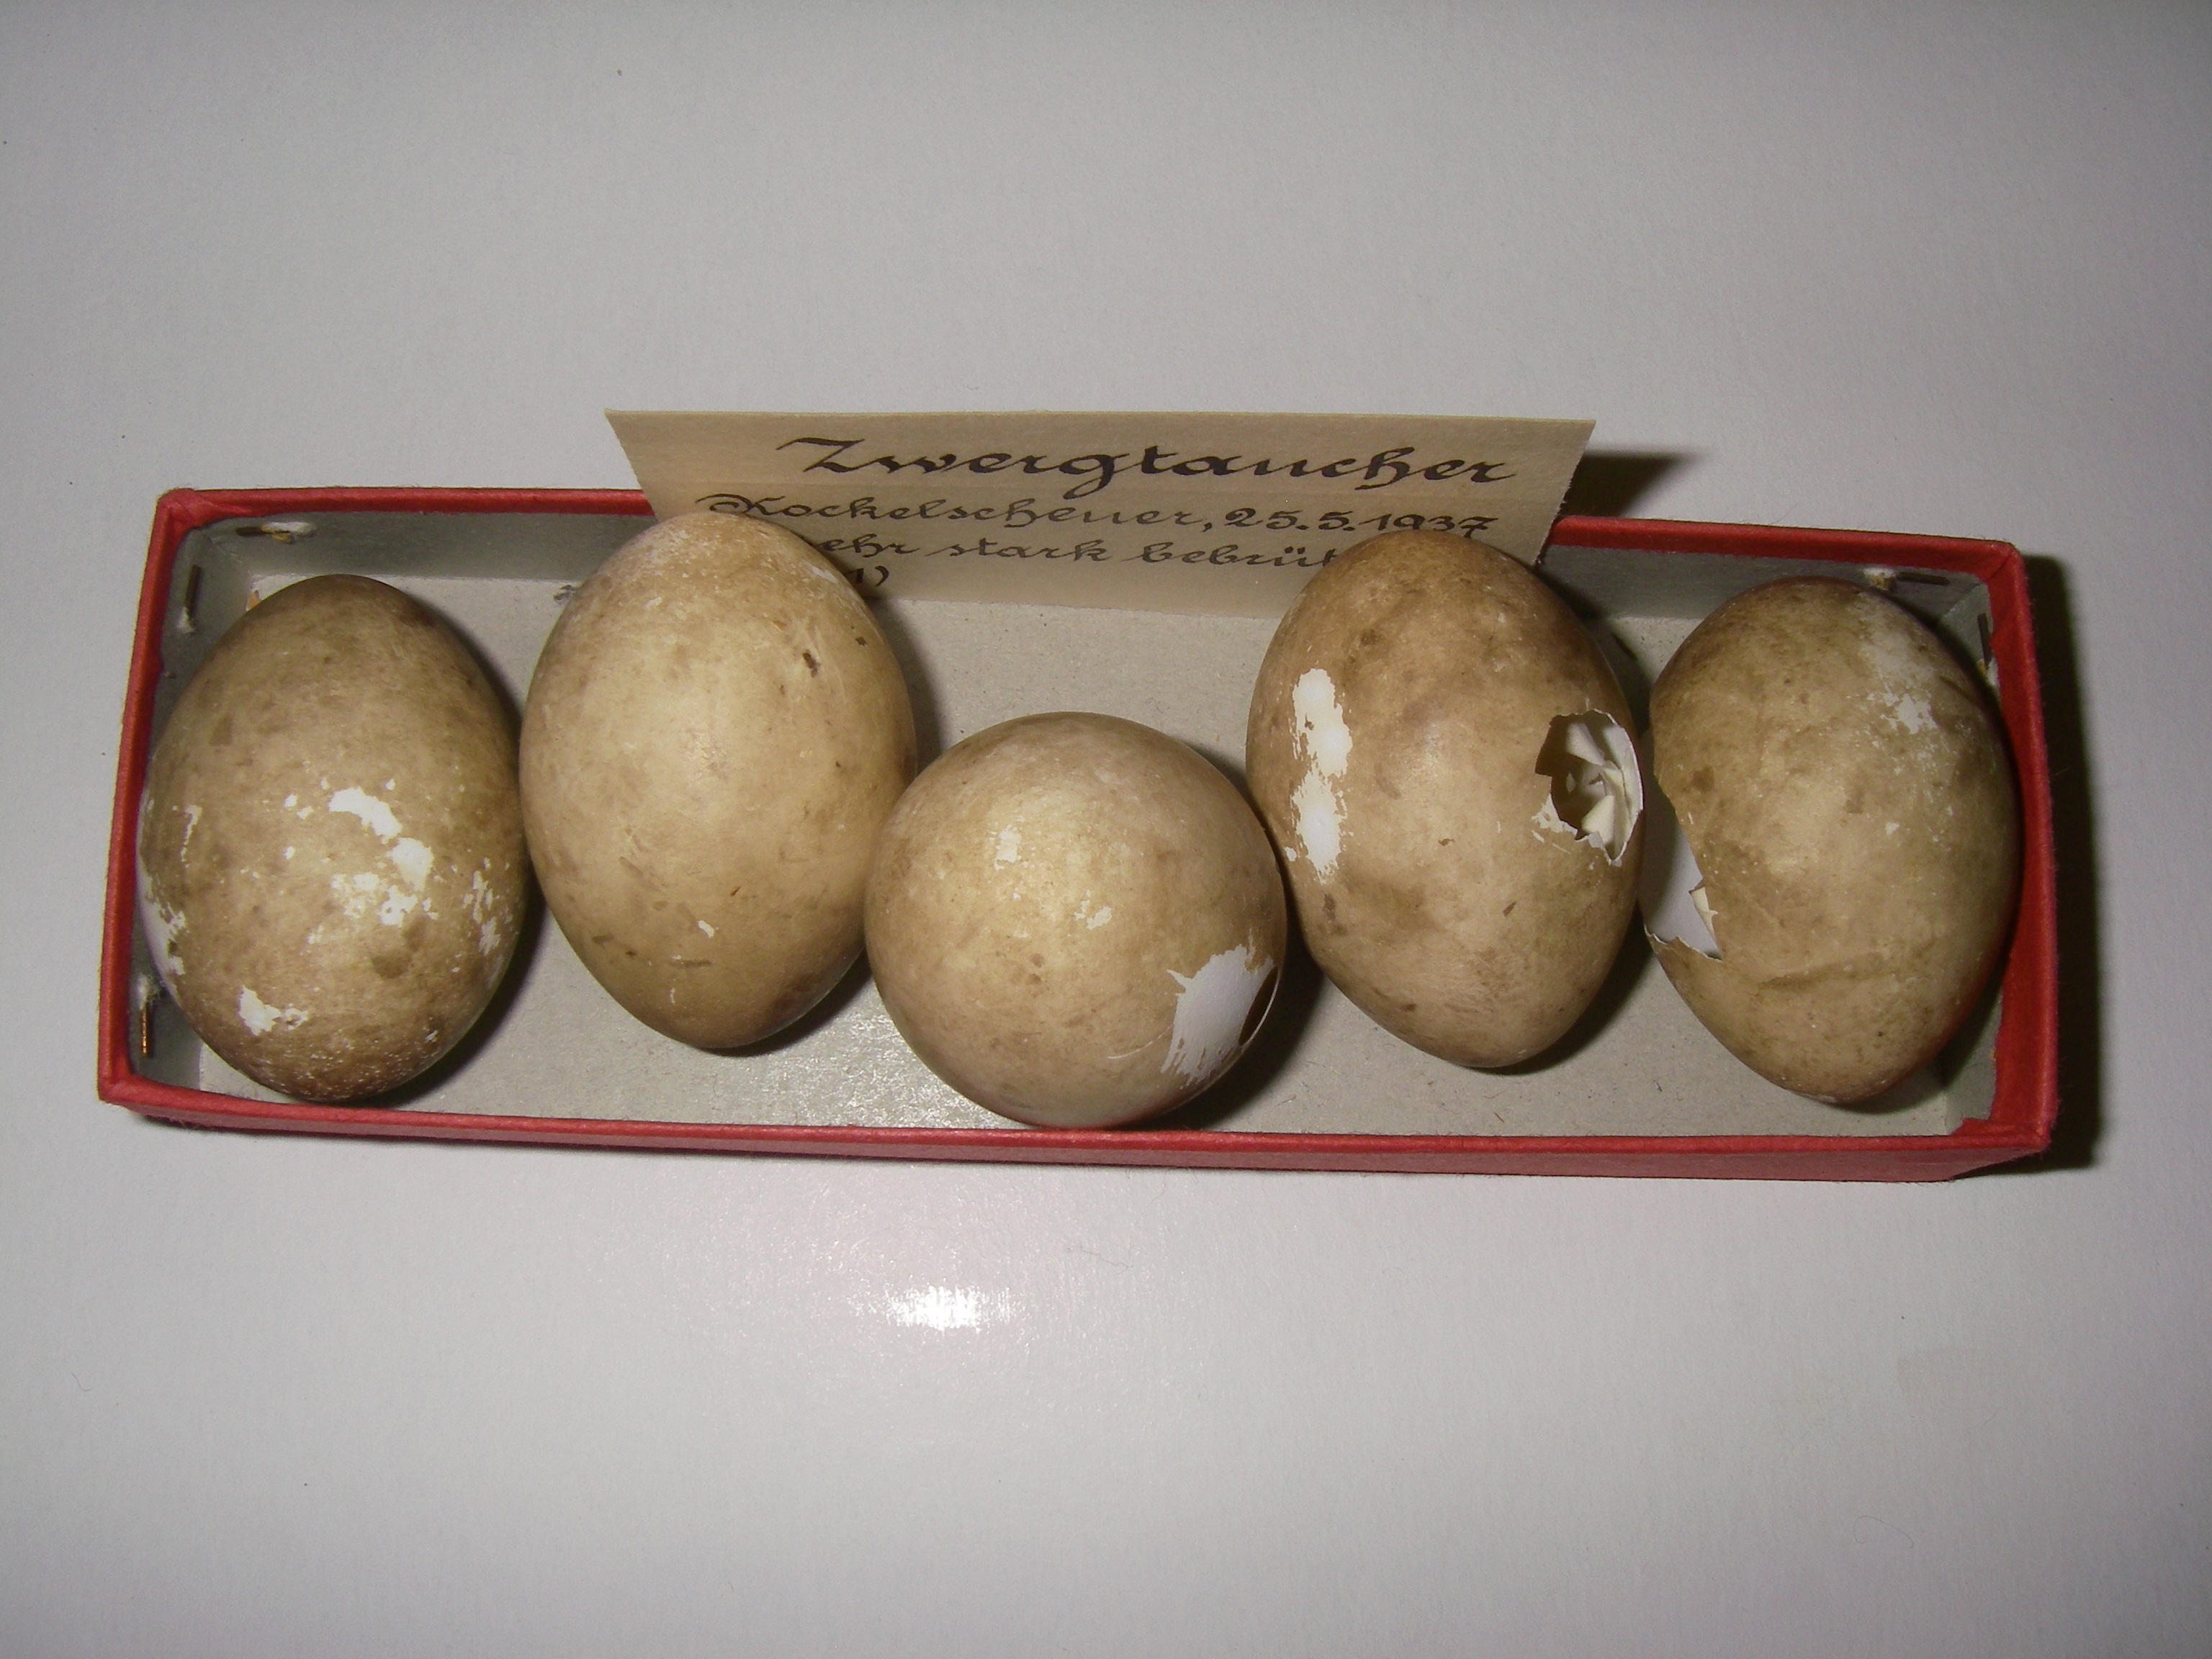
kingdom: Animalia
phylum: Chordata
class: Aves
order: Podicipediformes
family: Podicipedidae
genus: Tachybaptus
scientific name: Tachybaptus ruficollis
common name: Little grebe
